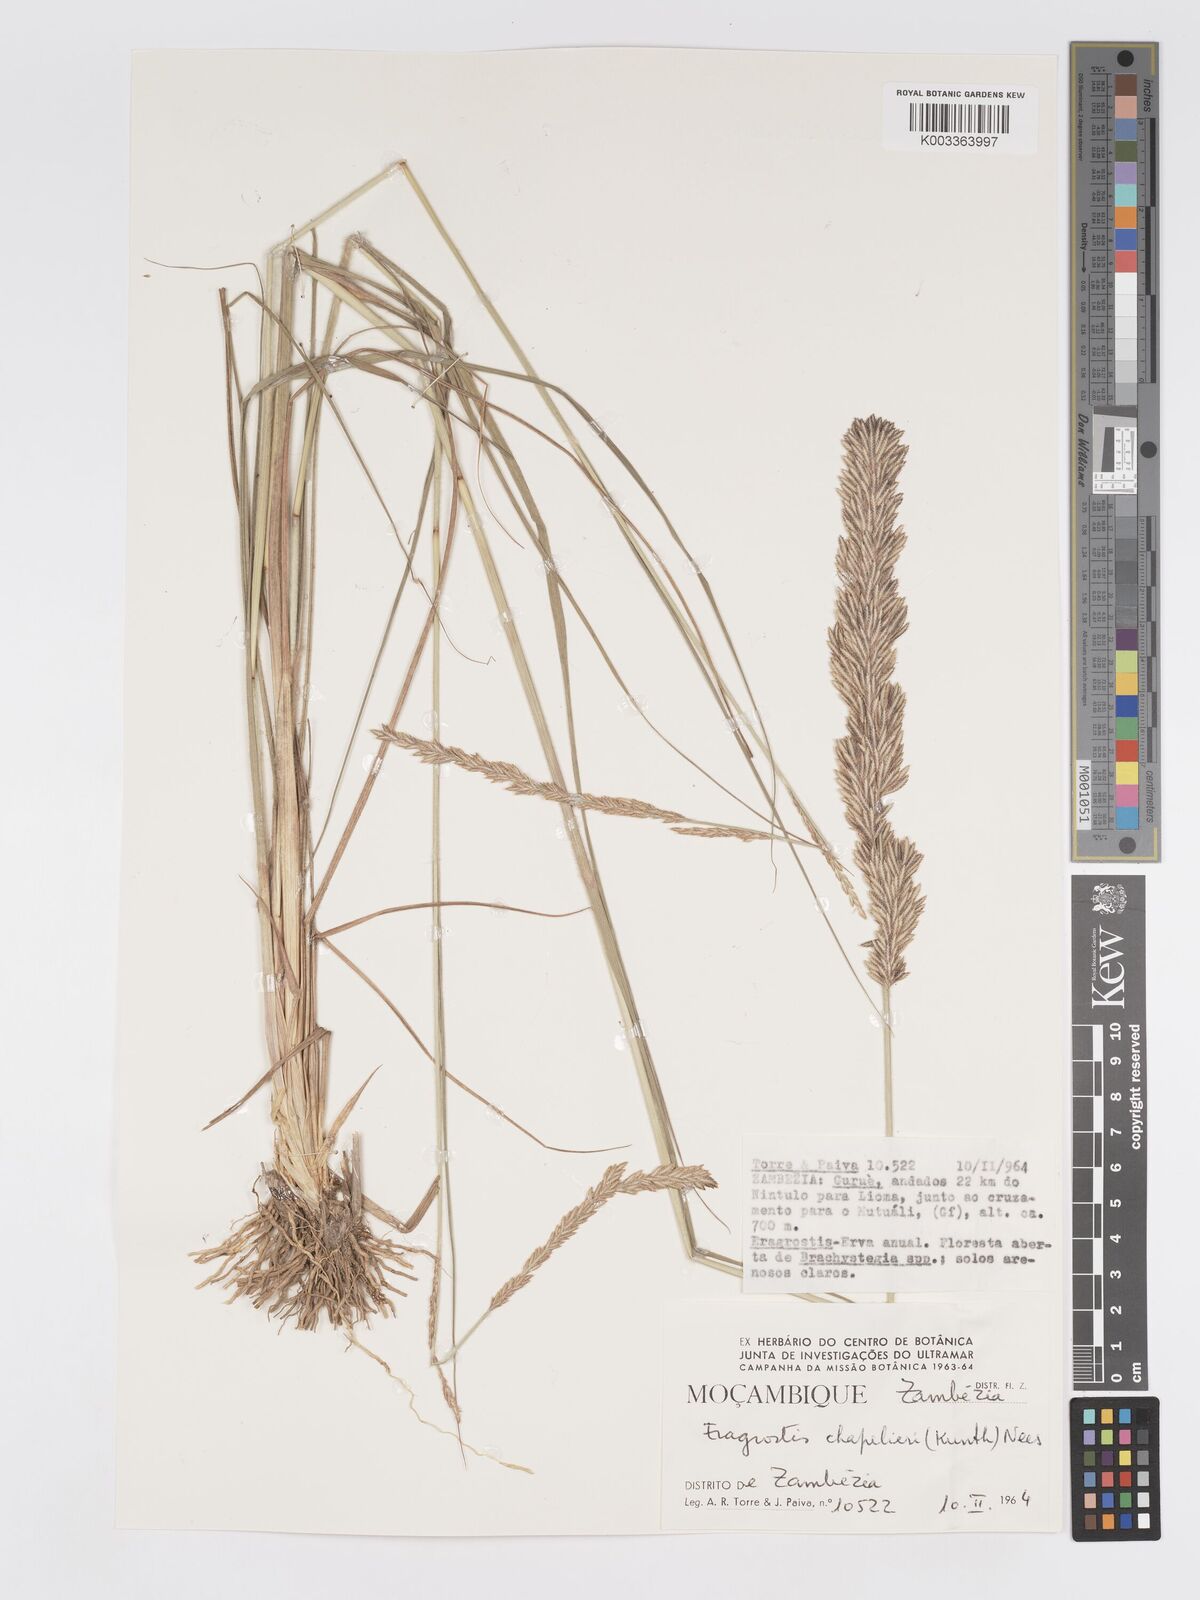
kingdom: Plantae
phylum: Tracheophyta
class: Liliopsida
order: Poales
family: Poaceae
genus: Eragrostis
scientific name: Eragrostis chapelieri
